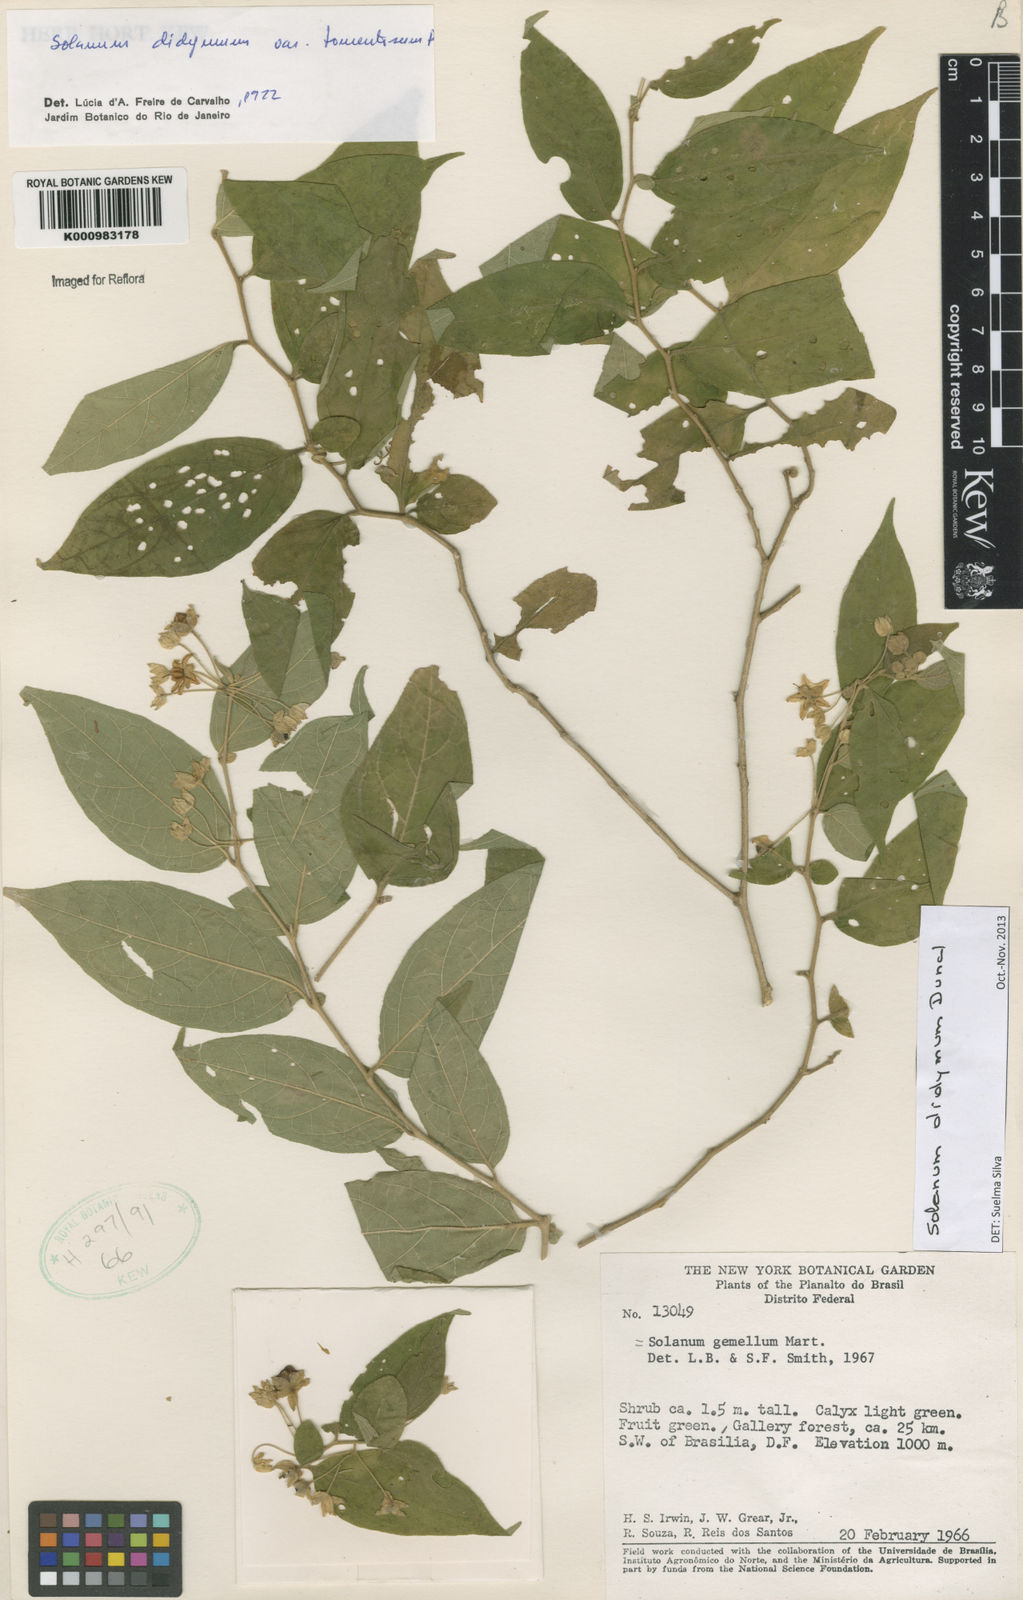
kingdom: Plantae
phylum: Tracheophyta
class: Magnoliopsida
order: Solanales
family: Solanaceae
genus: Solanum
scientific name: Solanum didymum
